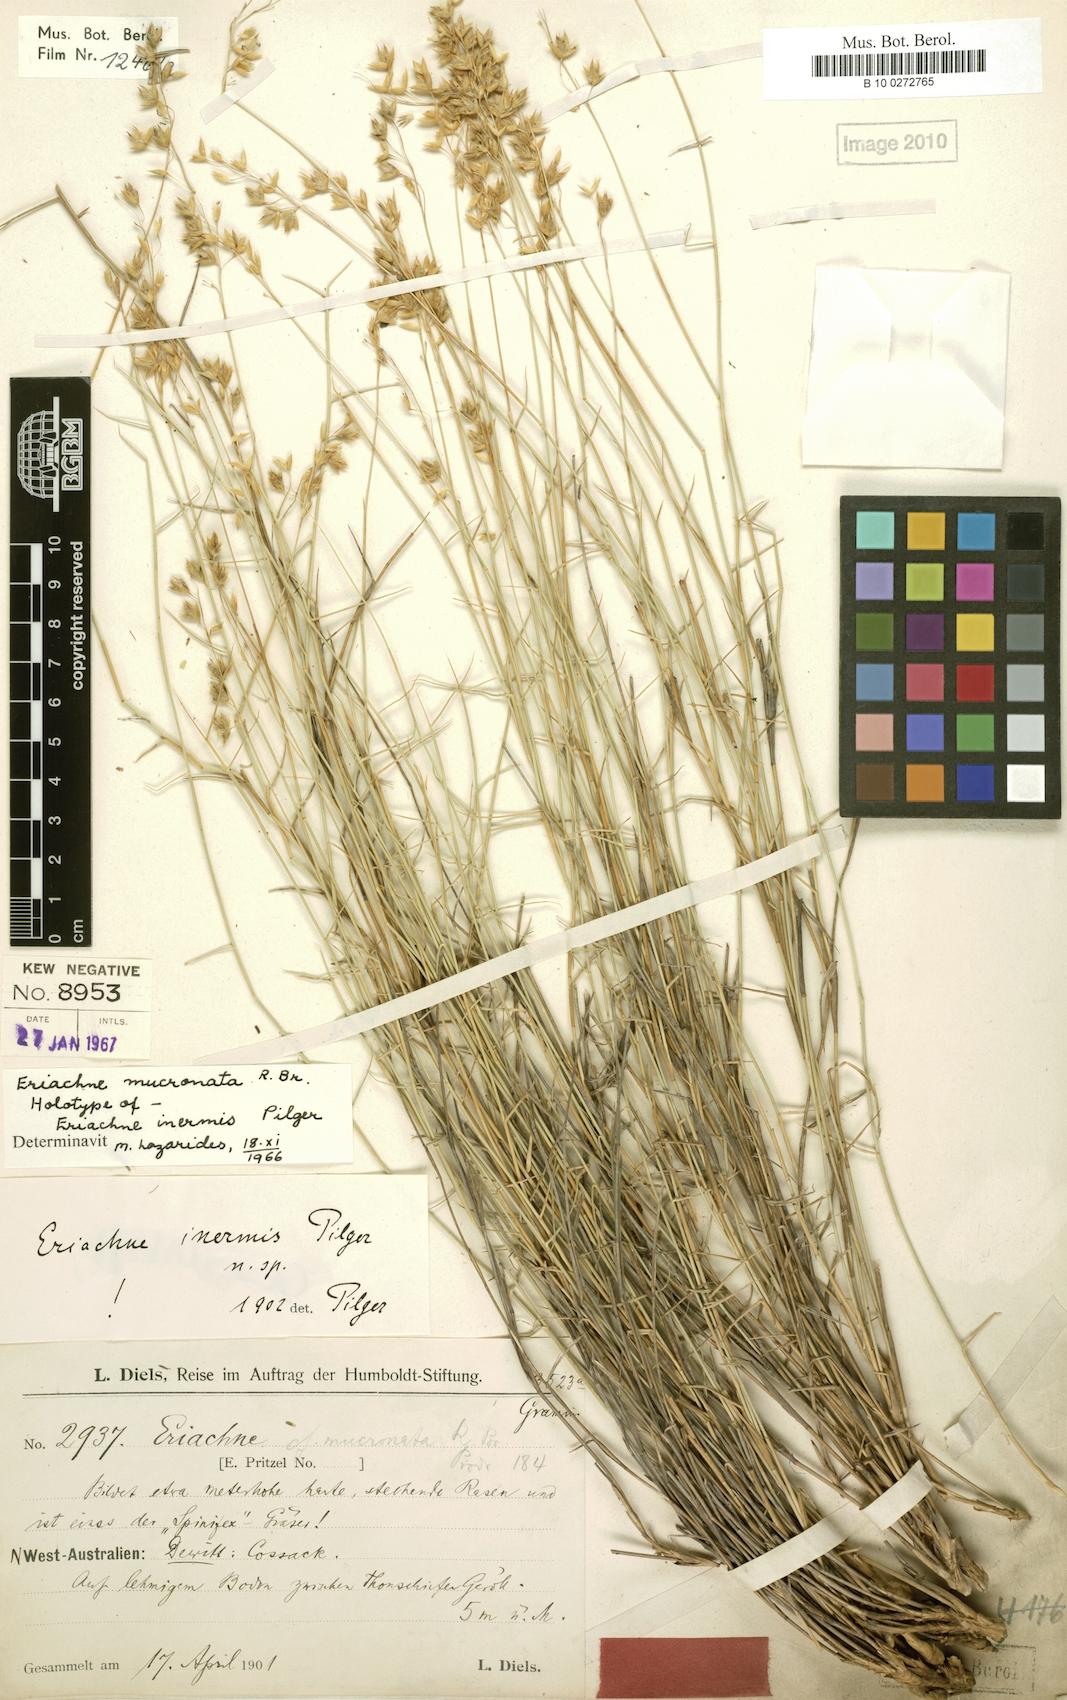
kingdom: Plantae
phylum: Tracheophyta
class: Liliopsida
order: Poales
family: Poaceae
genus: Eriachne
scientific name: Eriachne mucronata
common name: Mountain wanderrie grass
